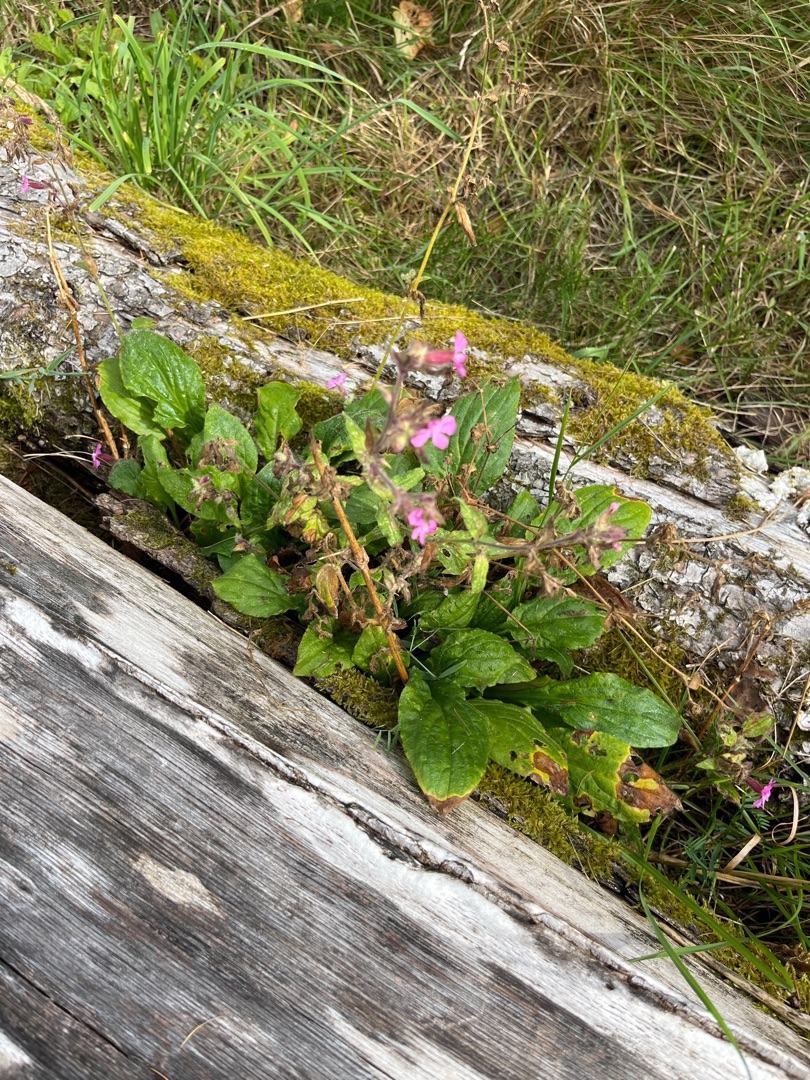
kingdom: Plantae
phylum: Tracheophyta
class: Magnoliopsida
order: Caryophyllales
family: Caryophyllaceae
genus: Silene
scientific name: Silene dioica
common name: Dagpragtstjerne
